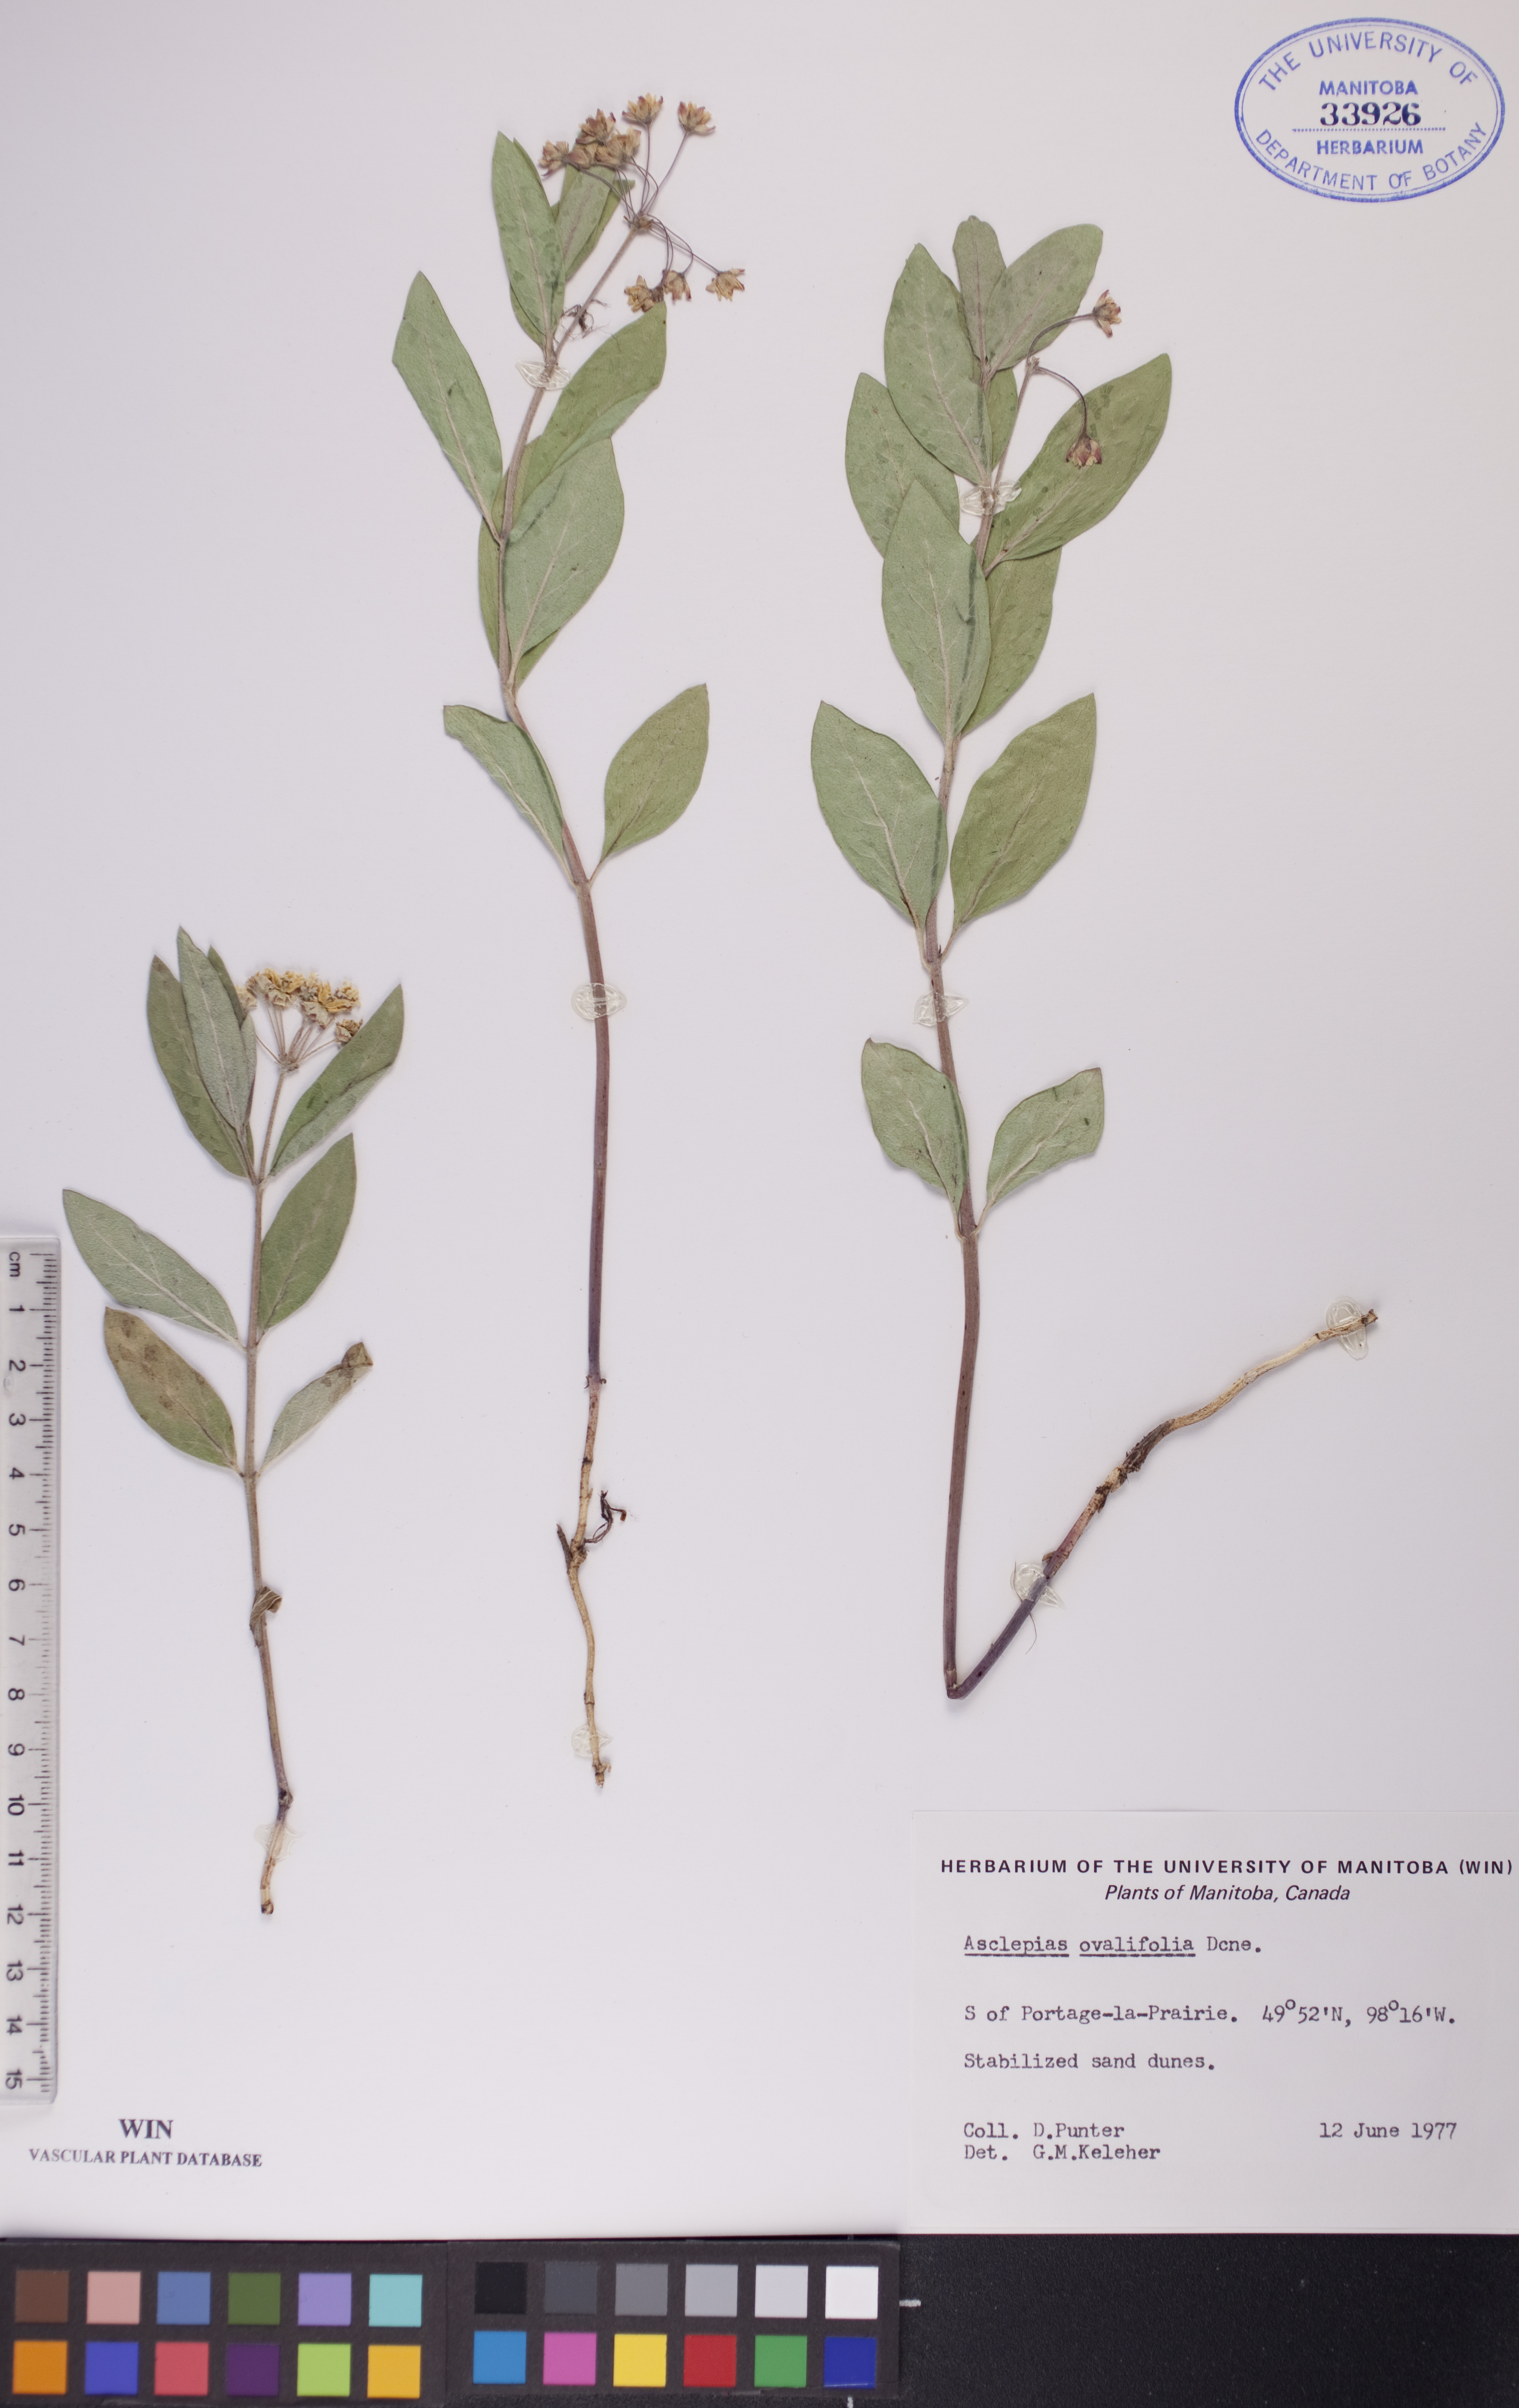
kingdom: Plantae
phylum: Tracheophyta
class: Magnoliopsida
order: Gentianales
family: Apocynaceae
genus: Asclepias
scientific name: Asclepias ovalifolia
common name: Dwarf milkweed
